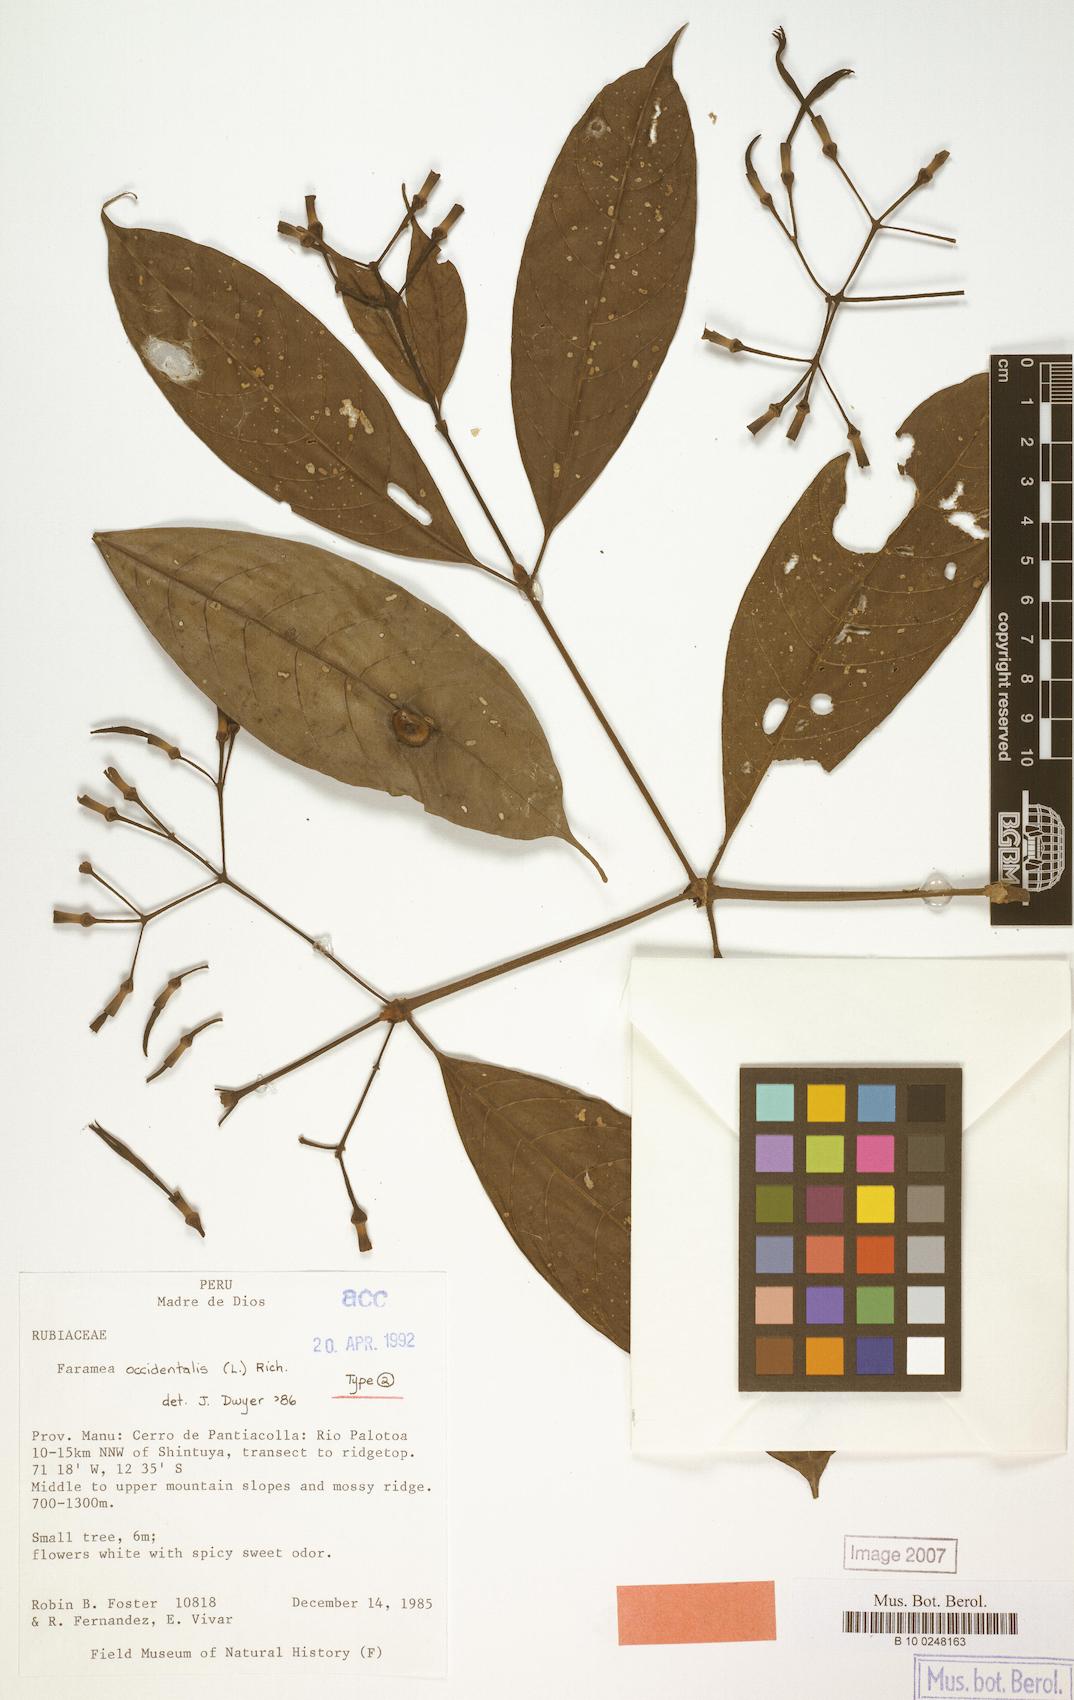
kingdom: Plantae
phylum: Tracheophyta
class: Magnoliopsida
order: Gentianales
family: Rubiaceae
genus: Faramea
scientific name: Faramea occidentalis
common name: False coffee
